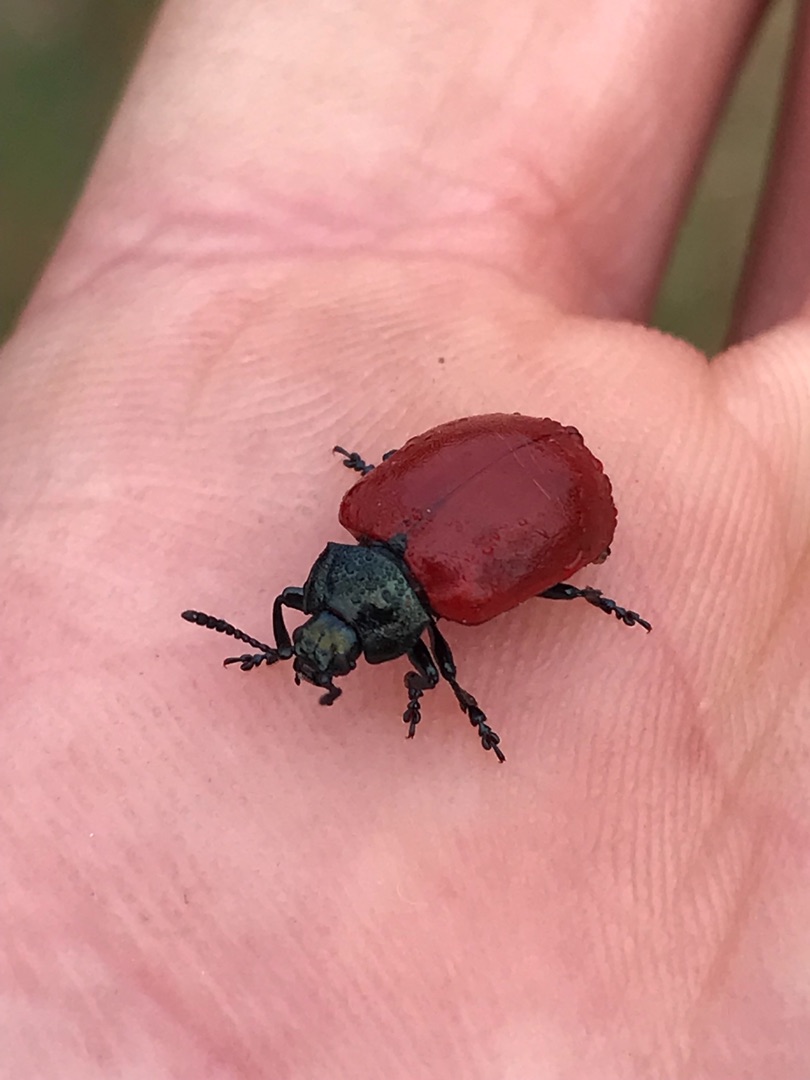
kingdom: Animalia
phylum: Arthropoda
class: Insecta
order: Coleoptera
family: Chrysomelidae
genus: Chrysomela
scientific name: Chrysomela populi
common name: Poppelbladbille
